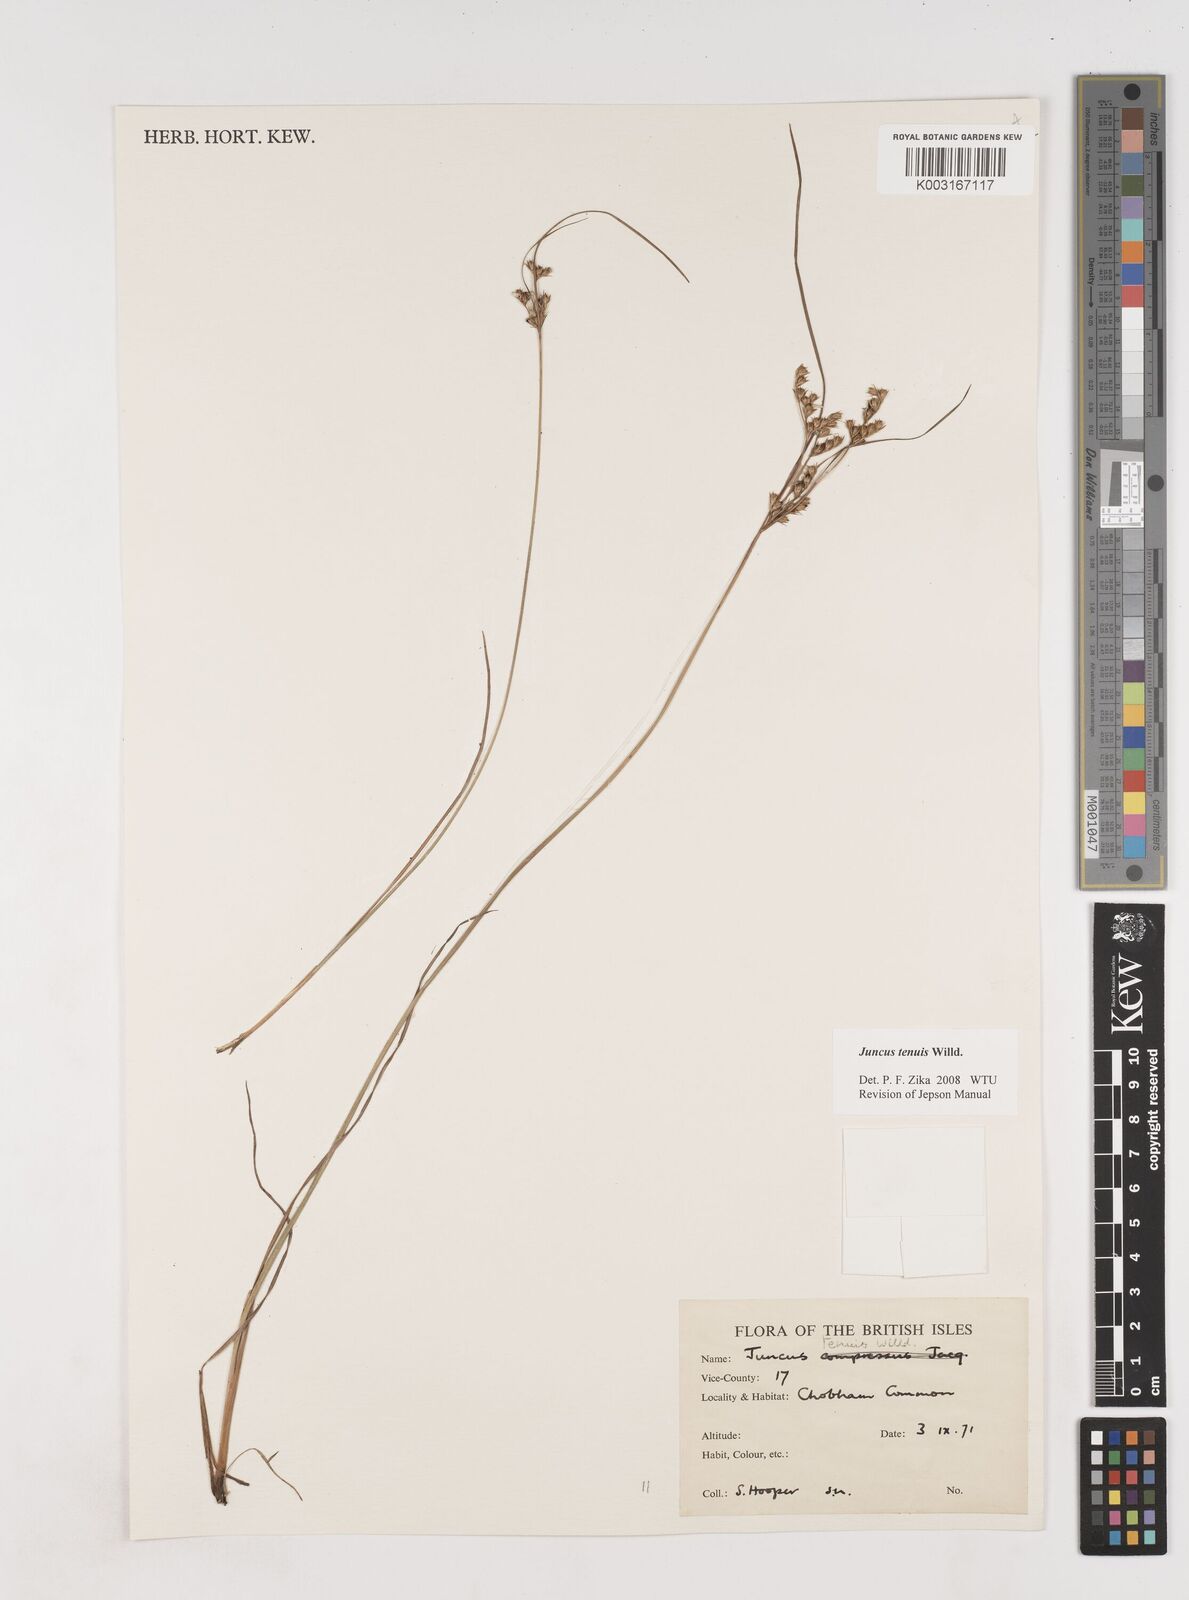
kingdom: Plantae
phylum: Tracheophyta
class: Liliopsida
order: Poales
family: Juncaceae
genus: Juncus
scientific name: Juncus occidentalis
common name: Western rush
